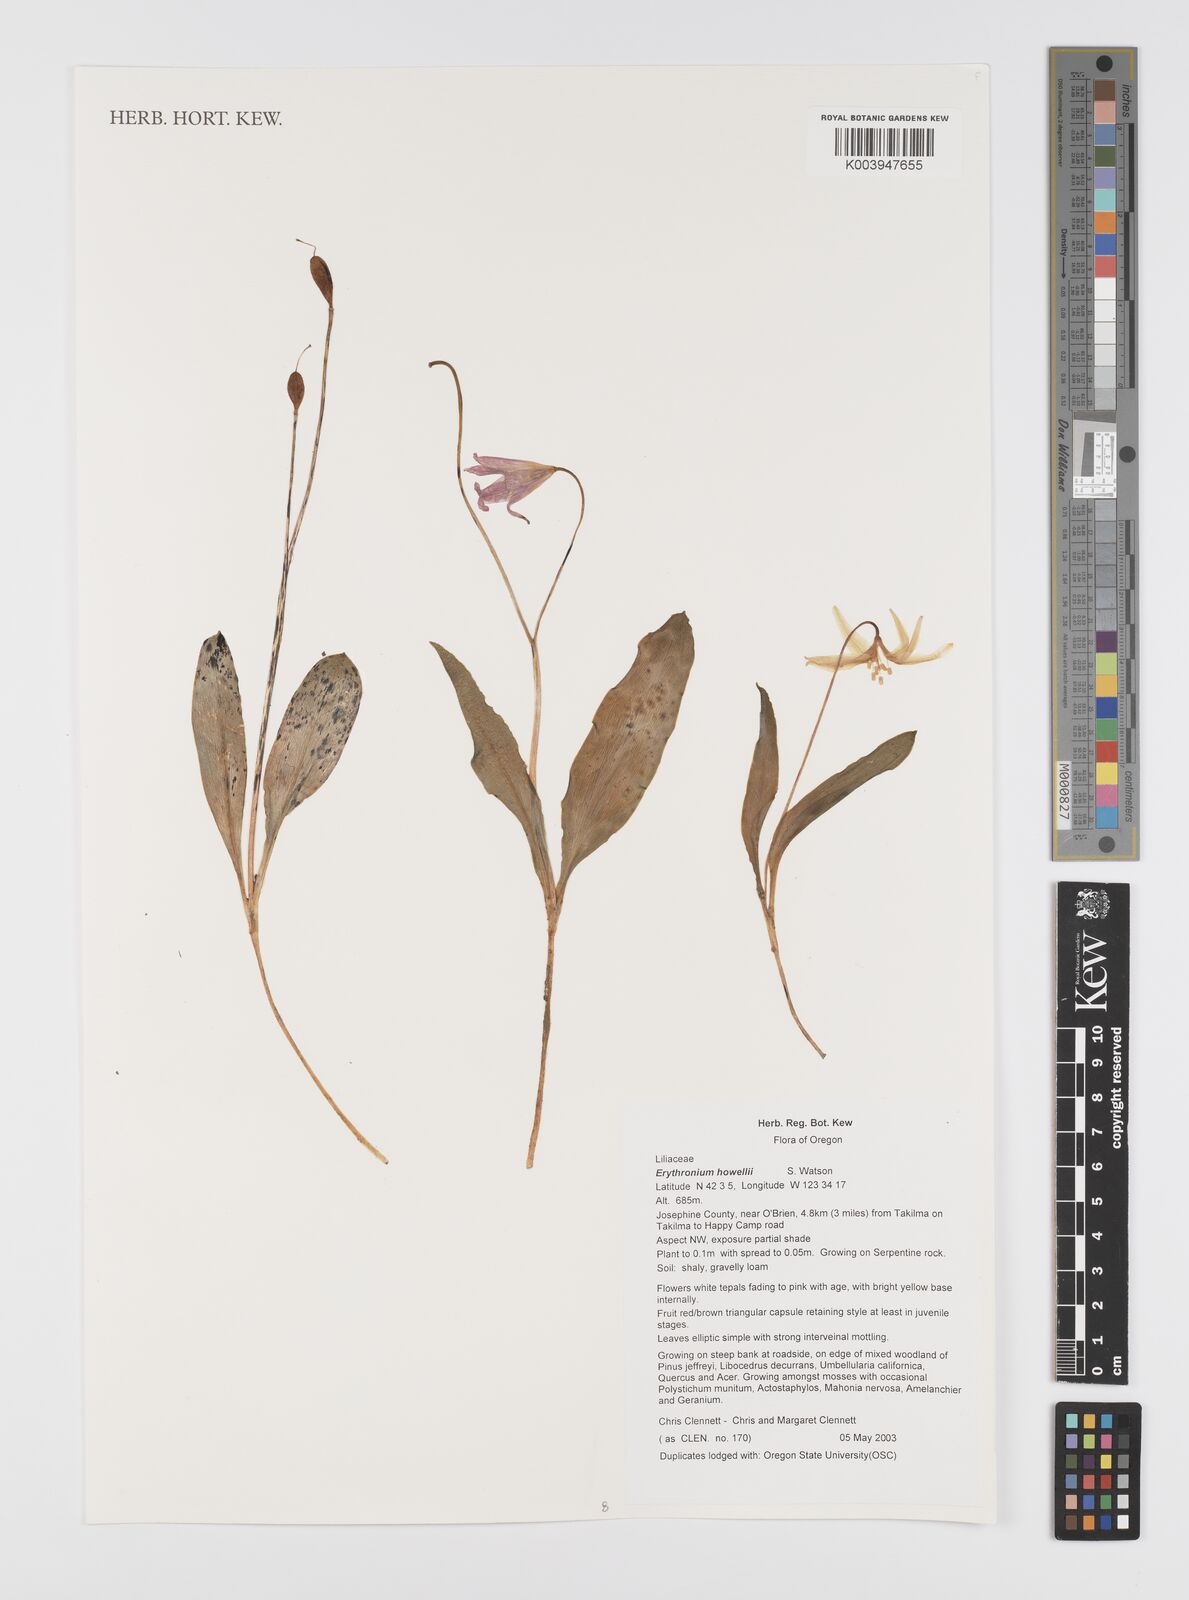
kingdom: Plantae
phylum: Tracheophyta
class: Liliopsida
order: Liliales
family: Liliaceae
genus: Erythronium
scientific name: Erythronium howellii
